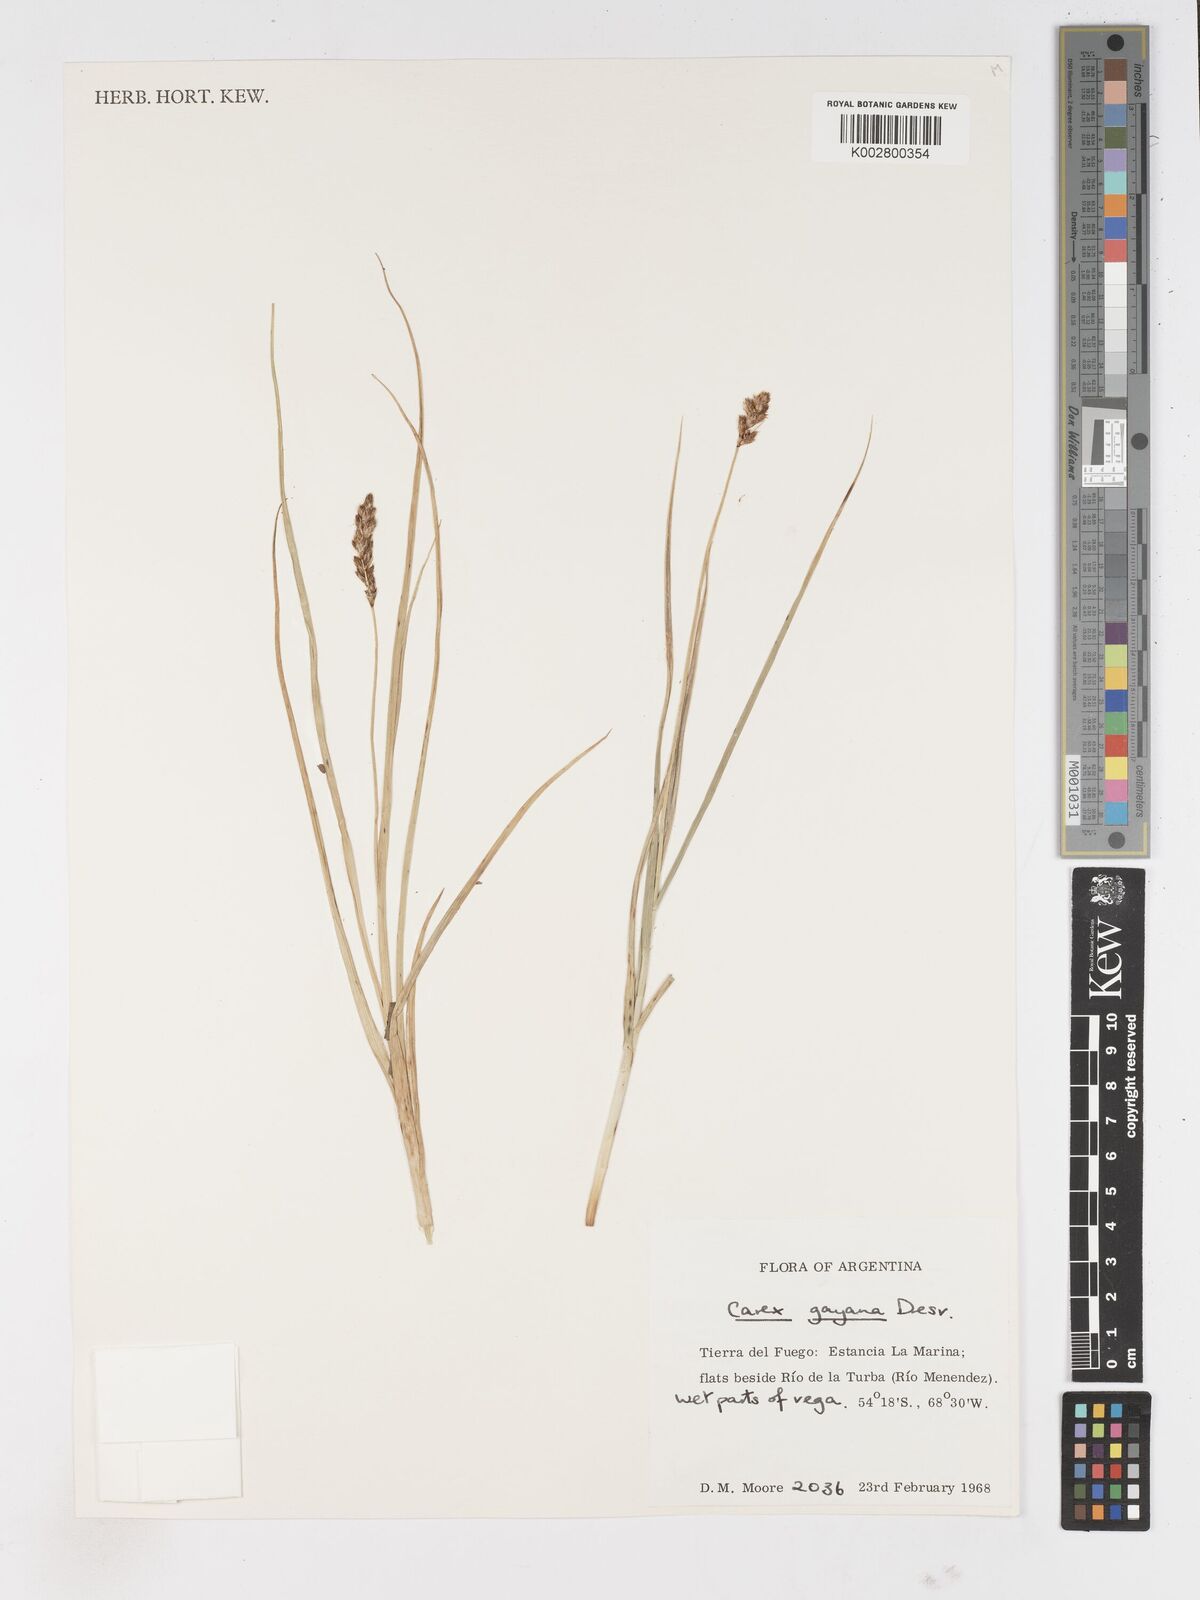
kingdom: Plantae
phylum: Tracheophyta
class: Liliopsida
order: Poales
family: Cyperaceae
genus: Carex
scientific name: Carex gayana
